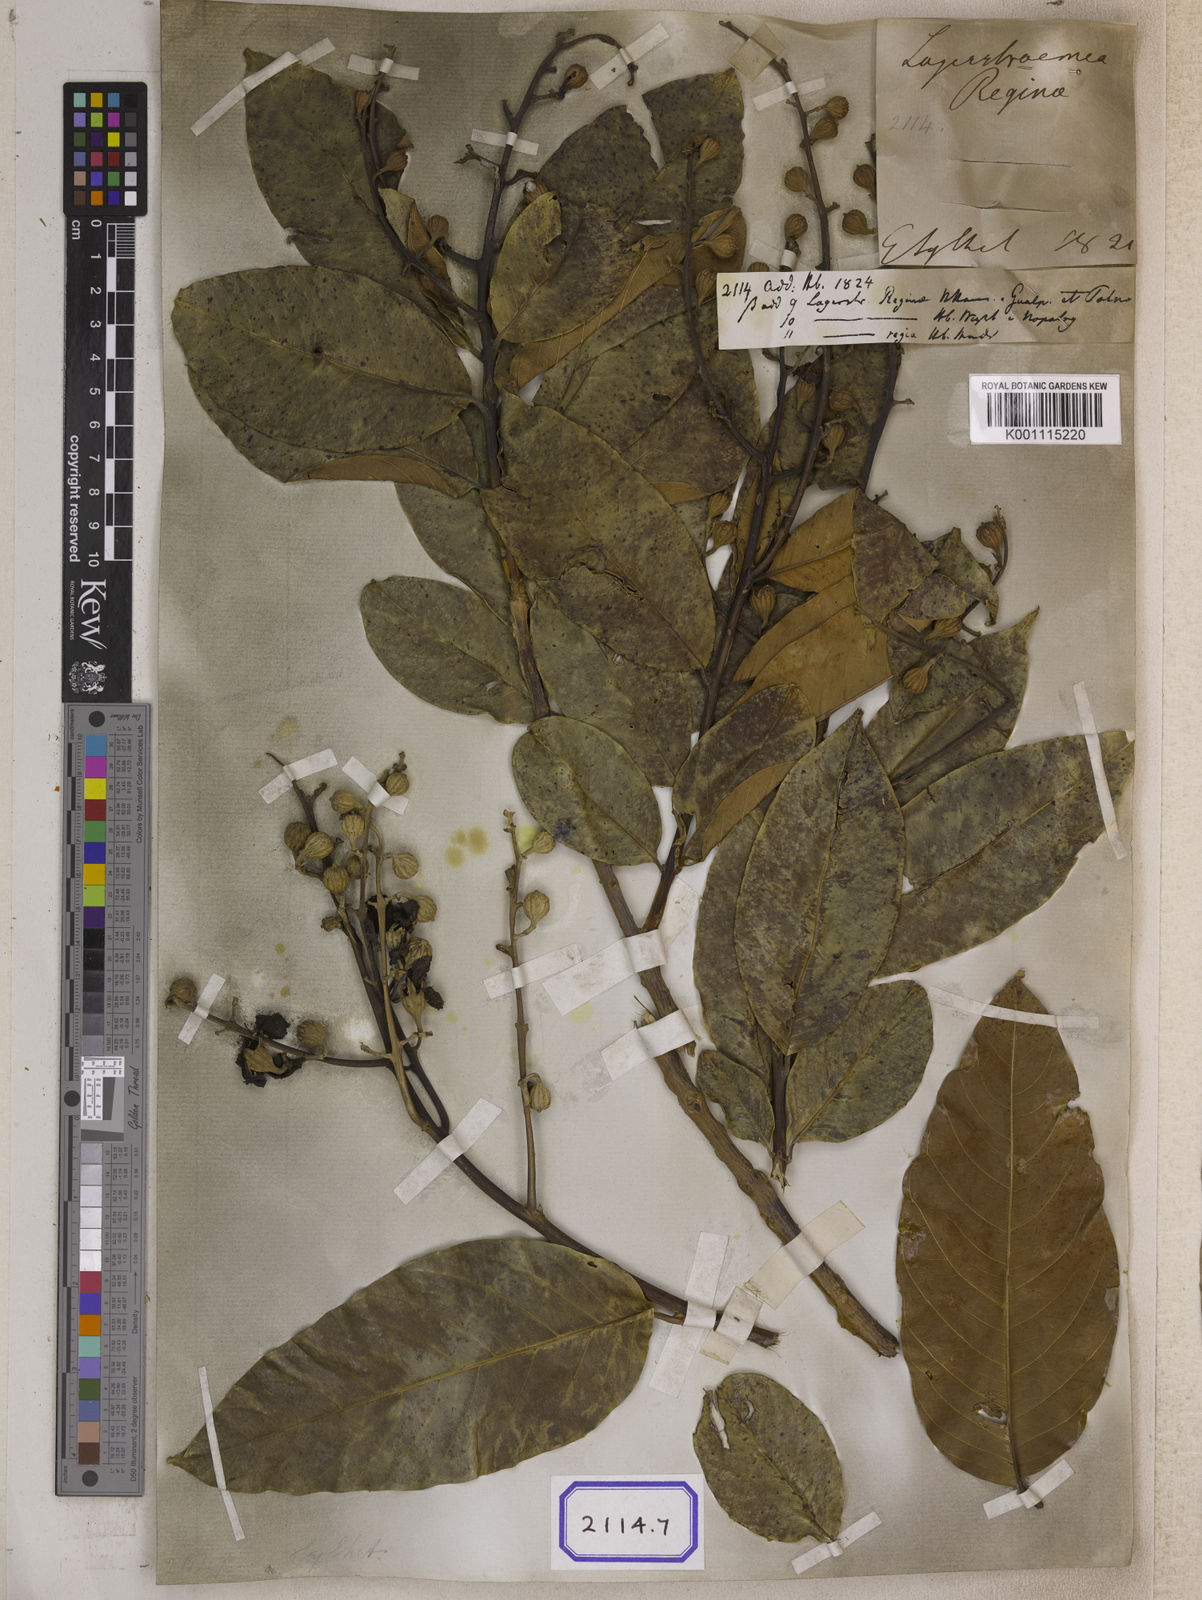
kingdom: Plantae
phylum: Tracheophyta
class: Magnoliopsida
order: Myrtales
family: Lythraceae
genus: Lagerstroemia
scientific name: Lagerstroemia
